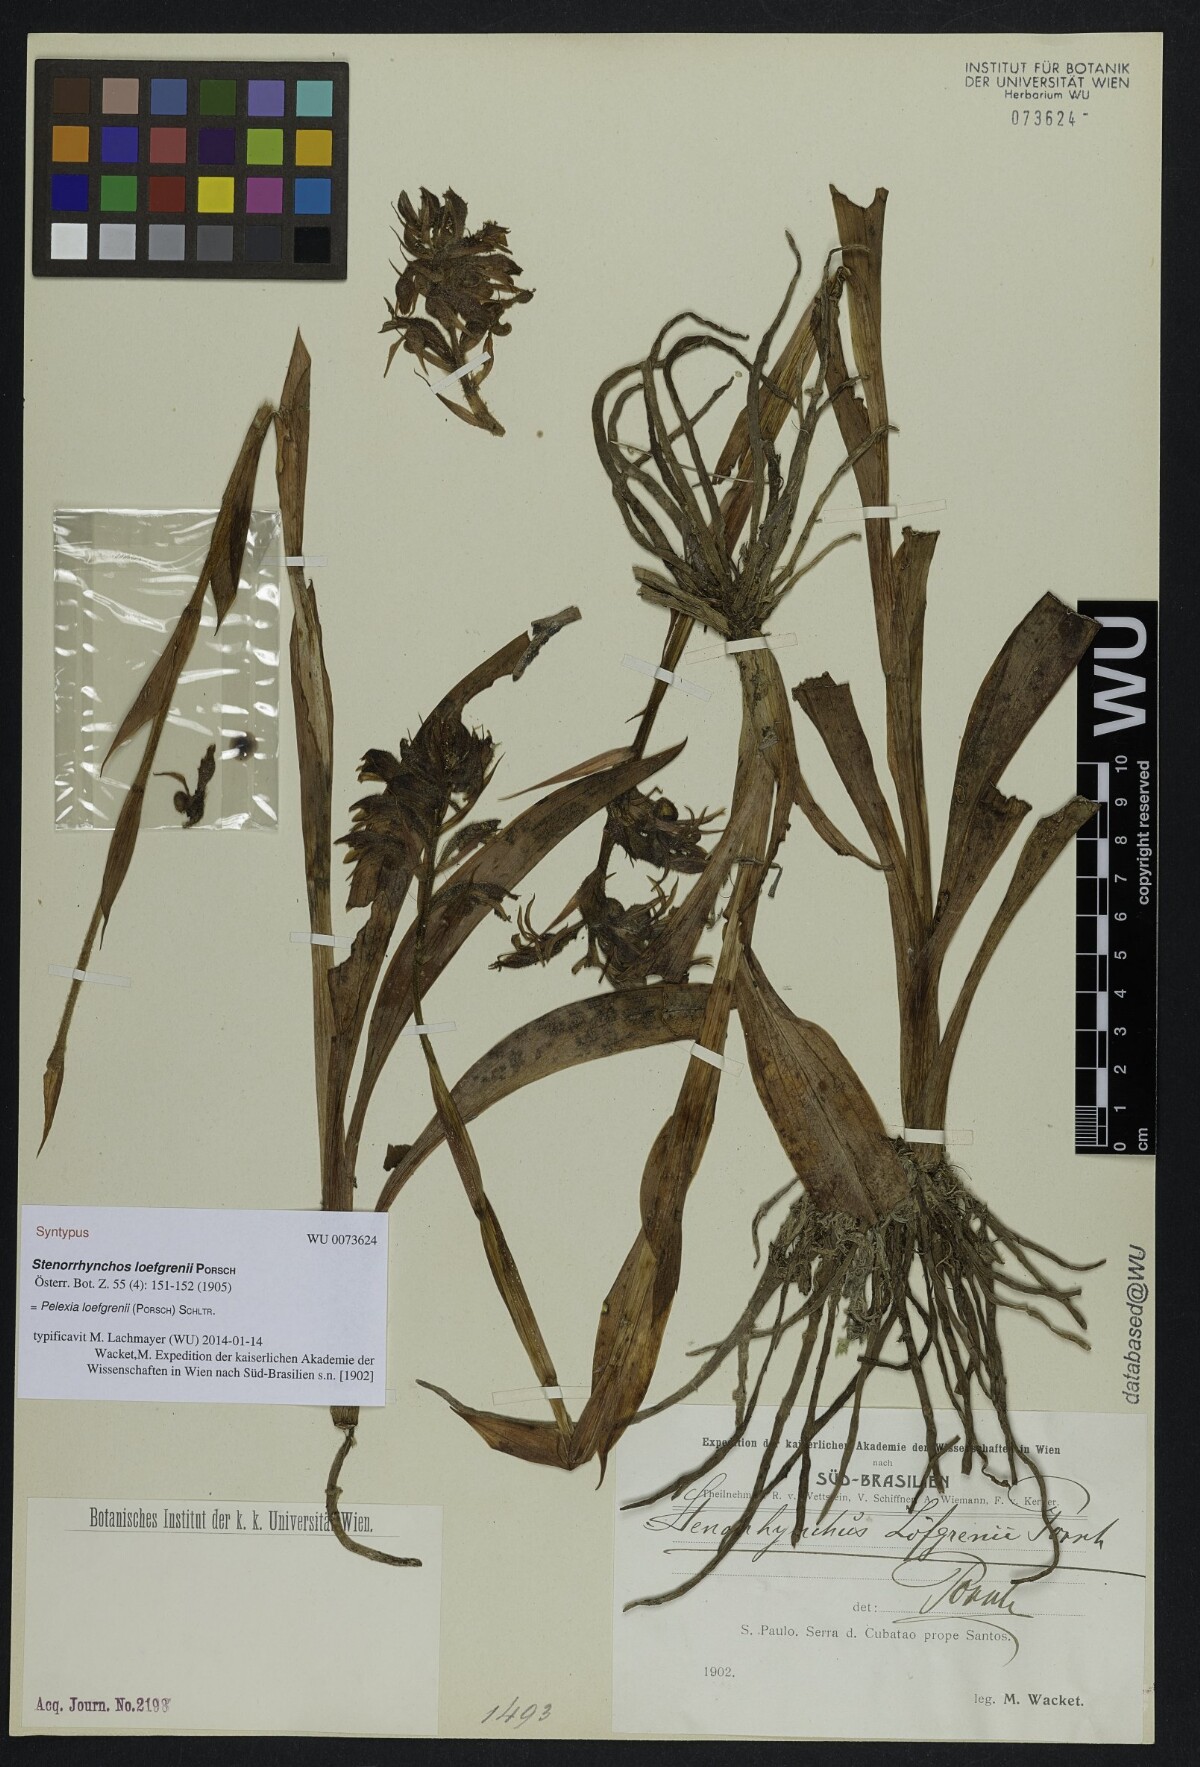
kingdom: Plantae
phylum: Tracheophyta
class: Liliopsida
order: Asparagales
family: Orchidaceae
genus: Pelexia
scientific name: Pelexia loefgrenii
